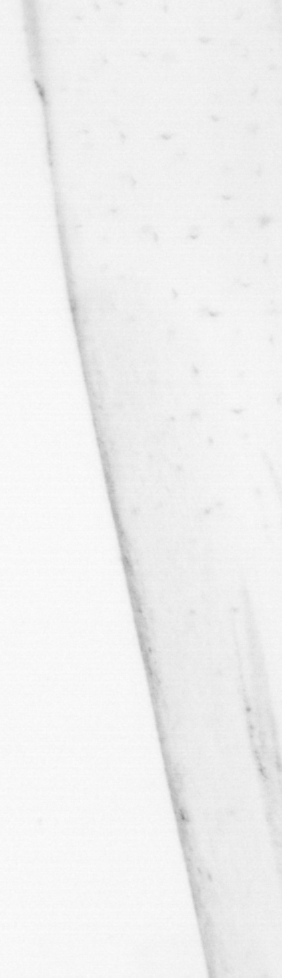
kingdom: Chromista
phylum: Ochrophyta
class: Bacillariophyceae
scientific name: Bacillariophyceae
